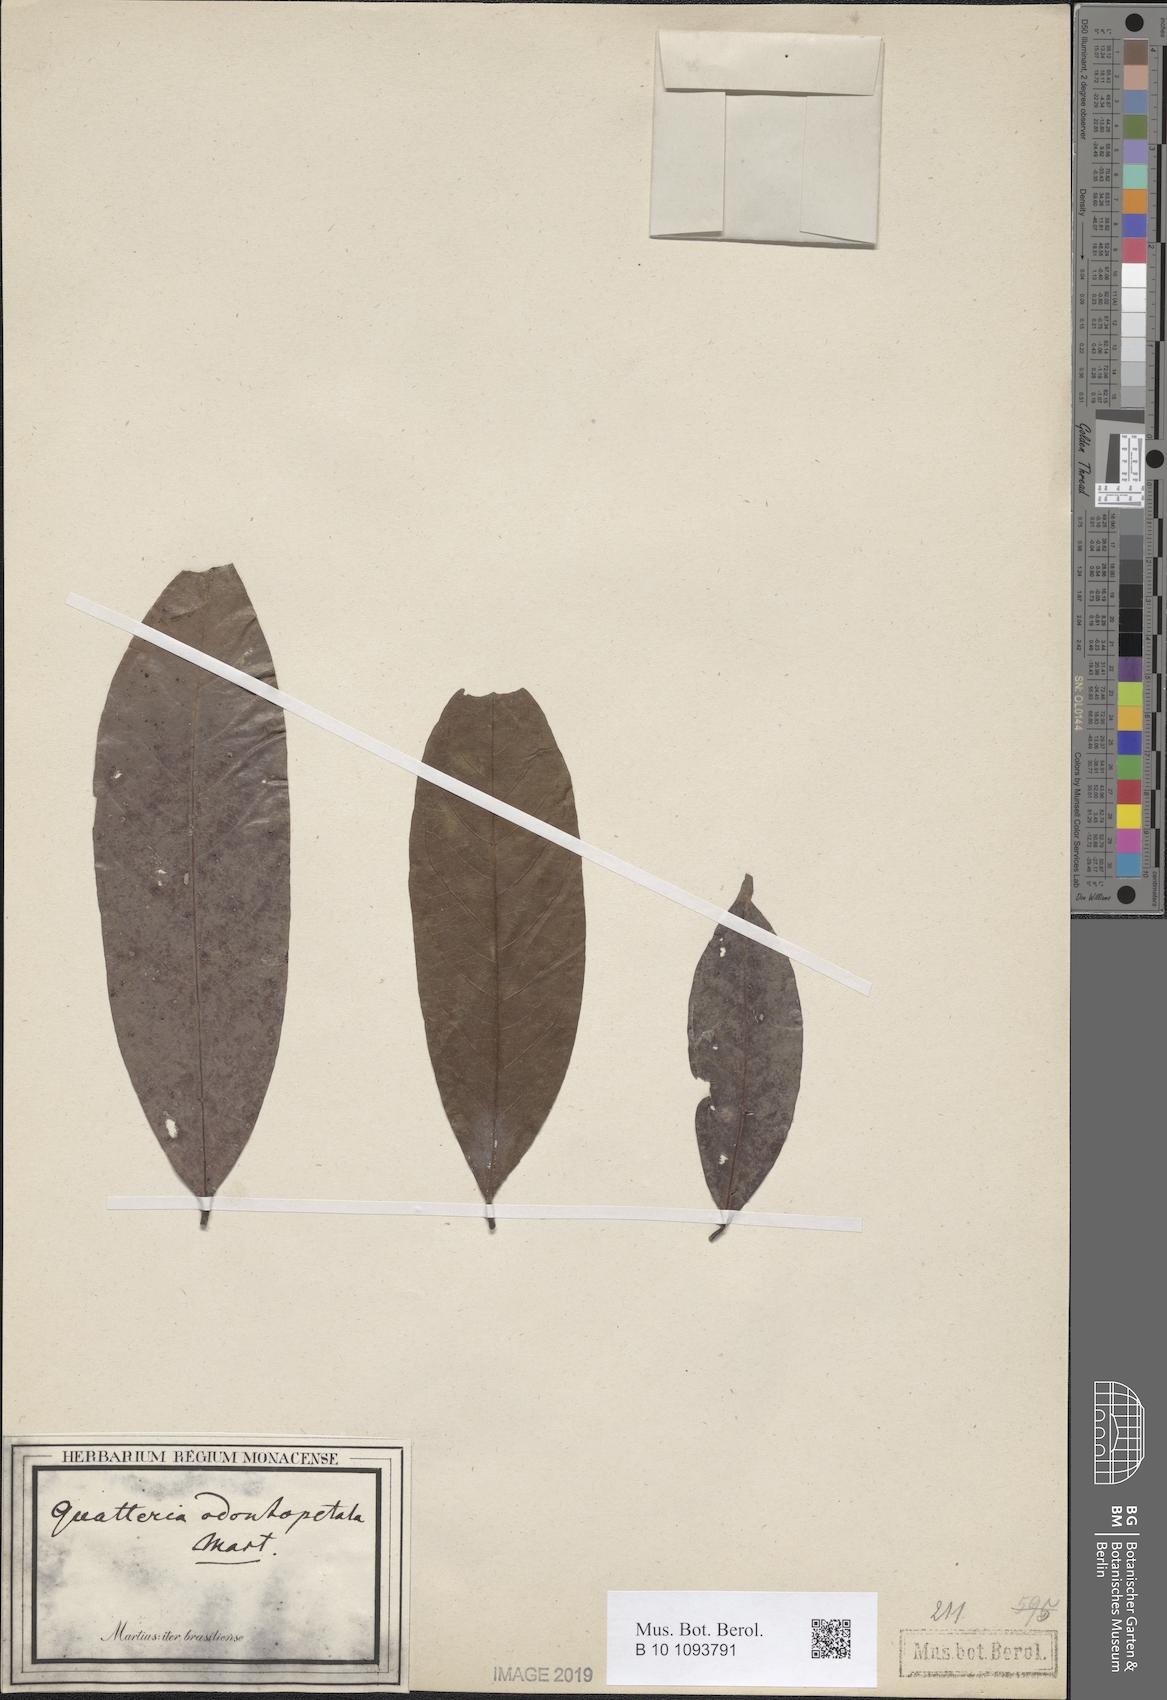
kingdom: Plantae
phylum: Tracheophyta
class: Magnoliopsida
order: Magnoliales
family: Annonaceae
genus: Guatteria
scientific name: Guatteria australis
